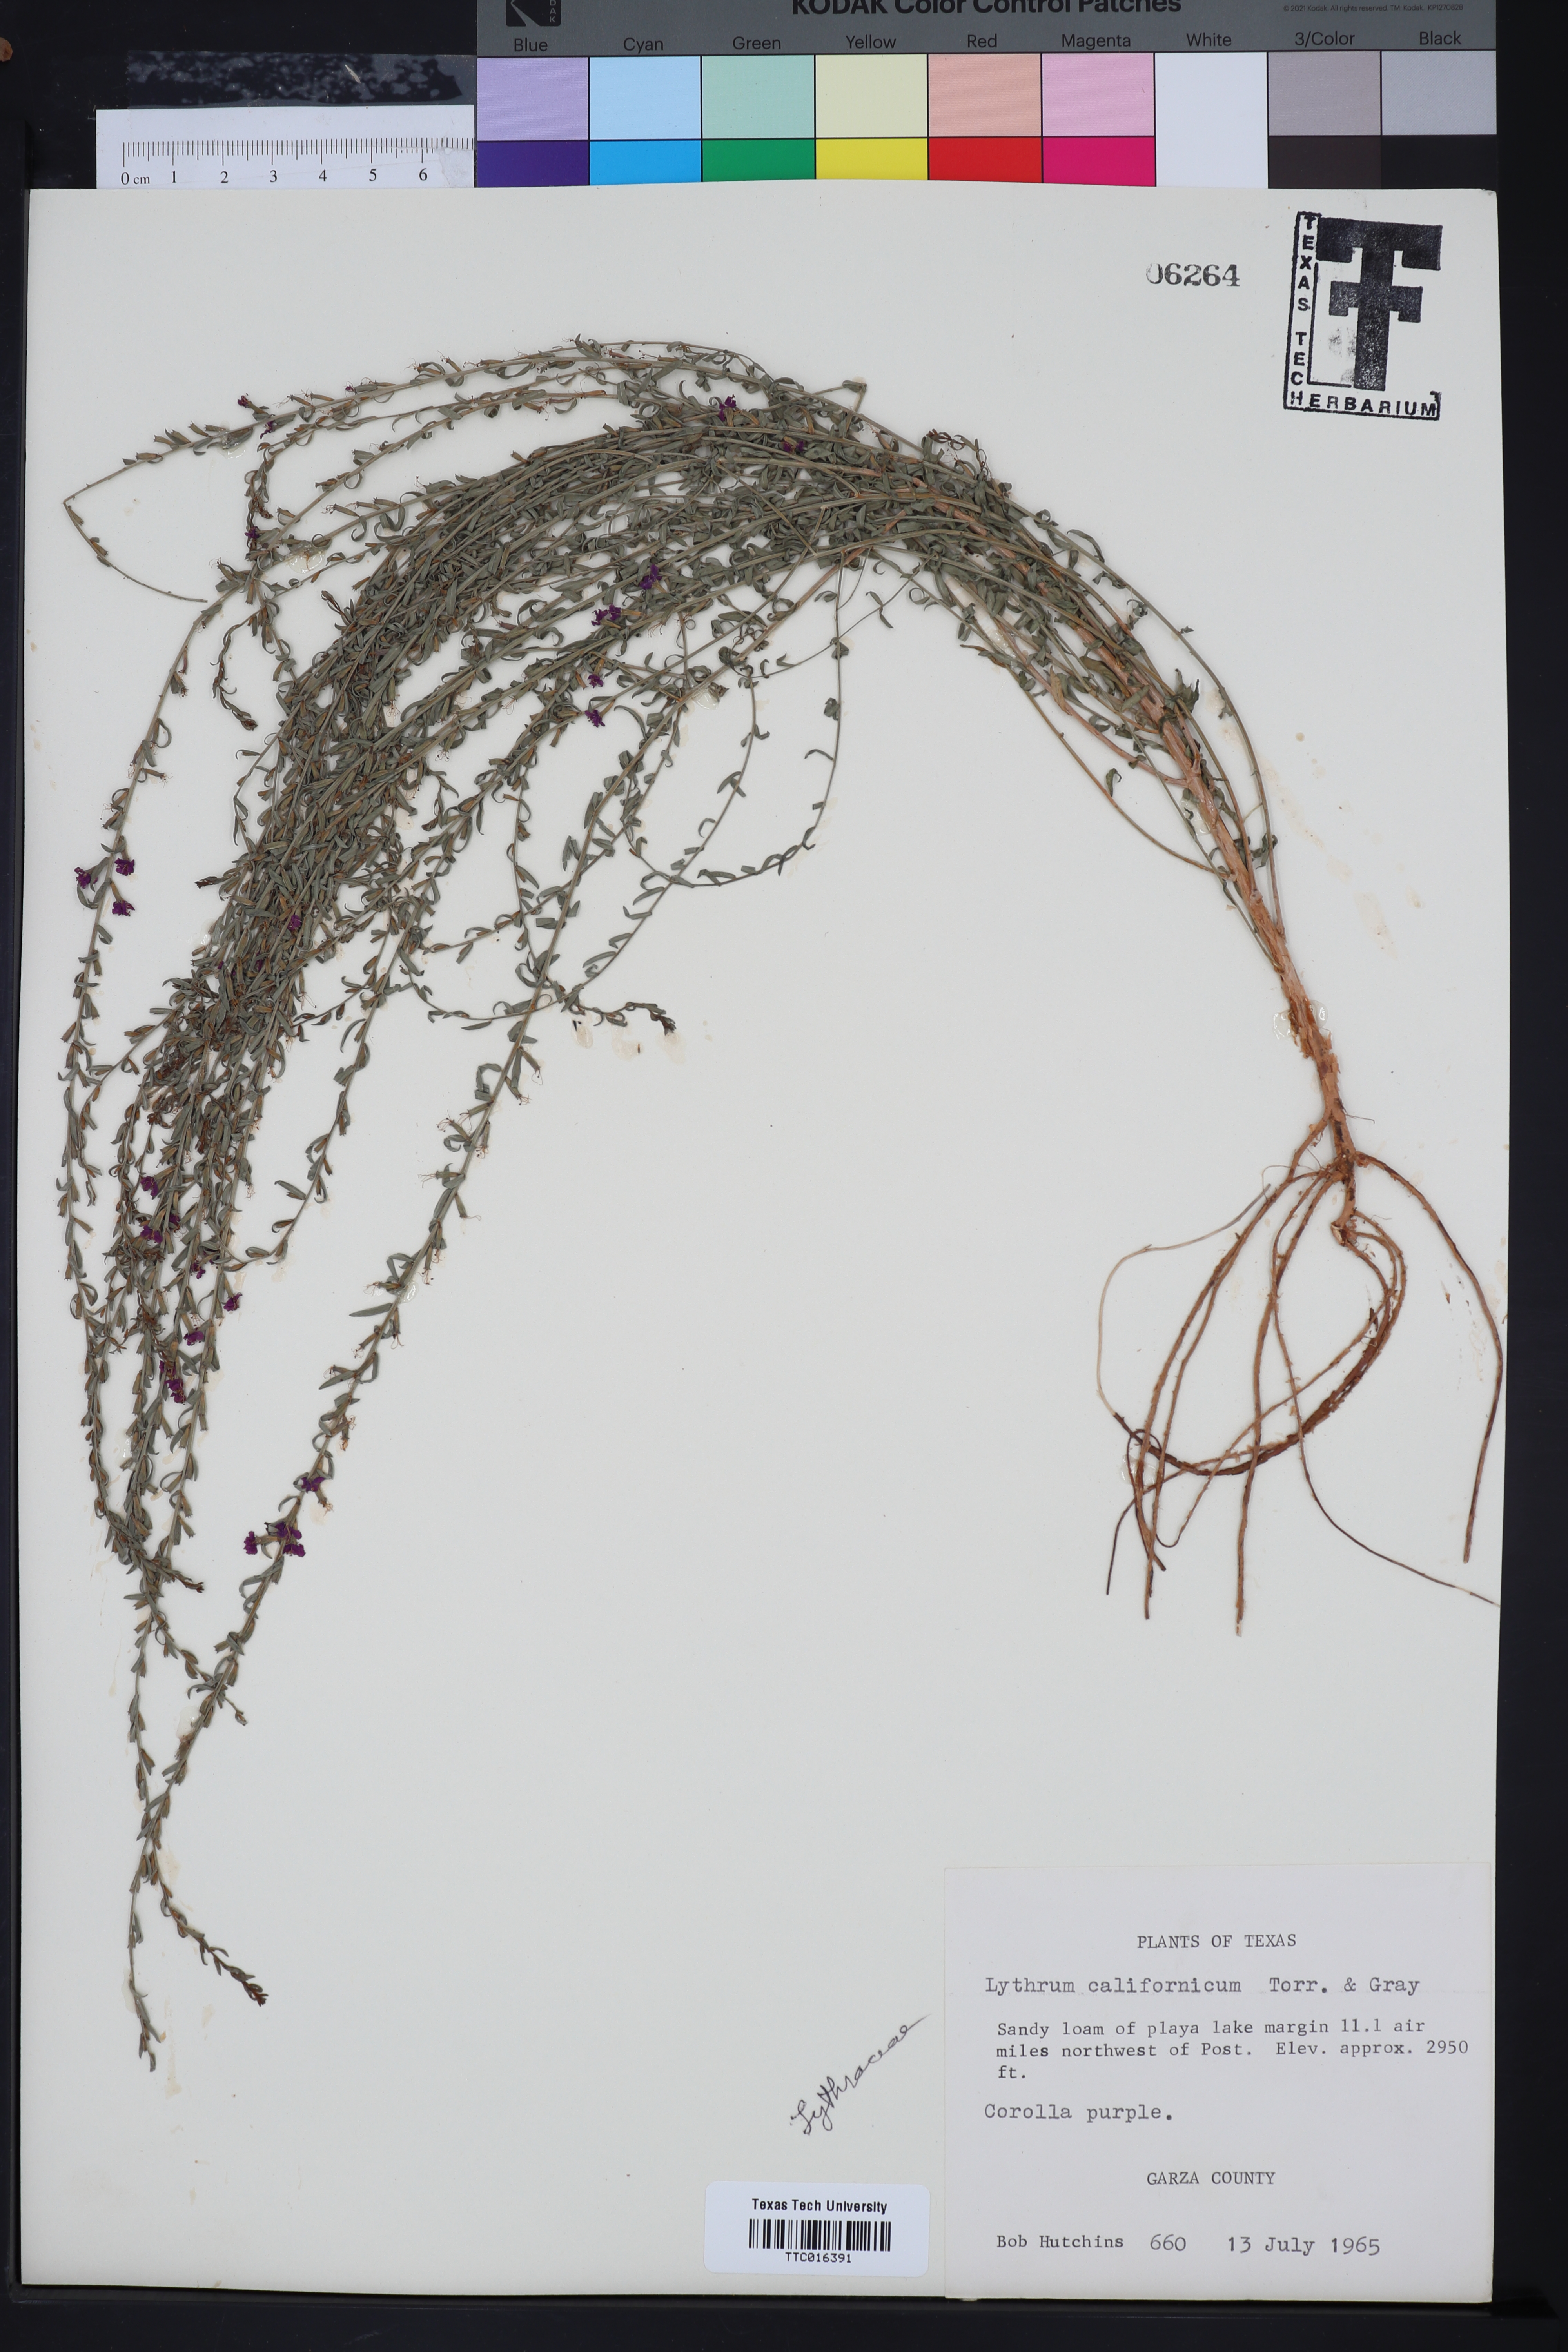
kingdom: Plantae
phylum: Tracheophyta
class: Magnoliopsida
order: Myrtales
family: Lythraceae
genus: Lythrum
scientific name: Lythrum californicum
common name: California loosestrife
